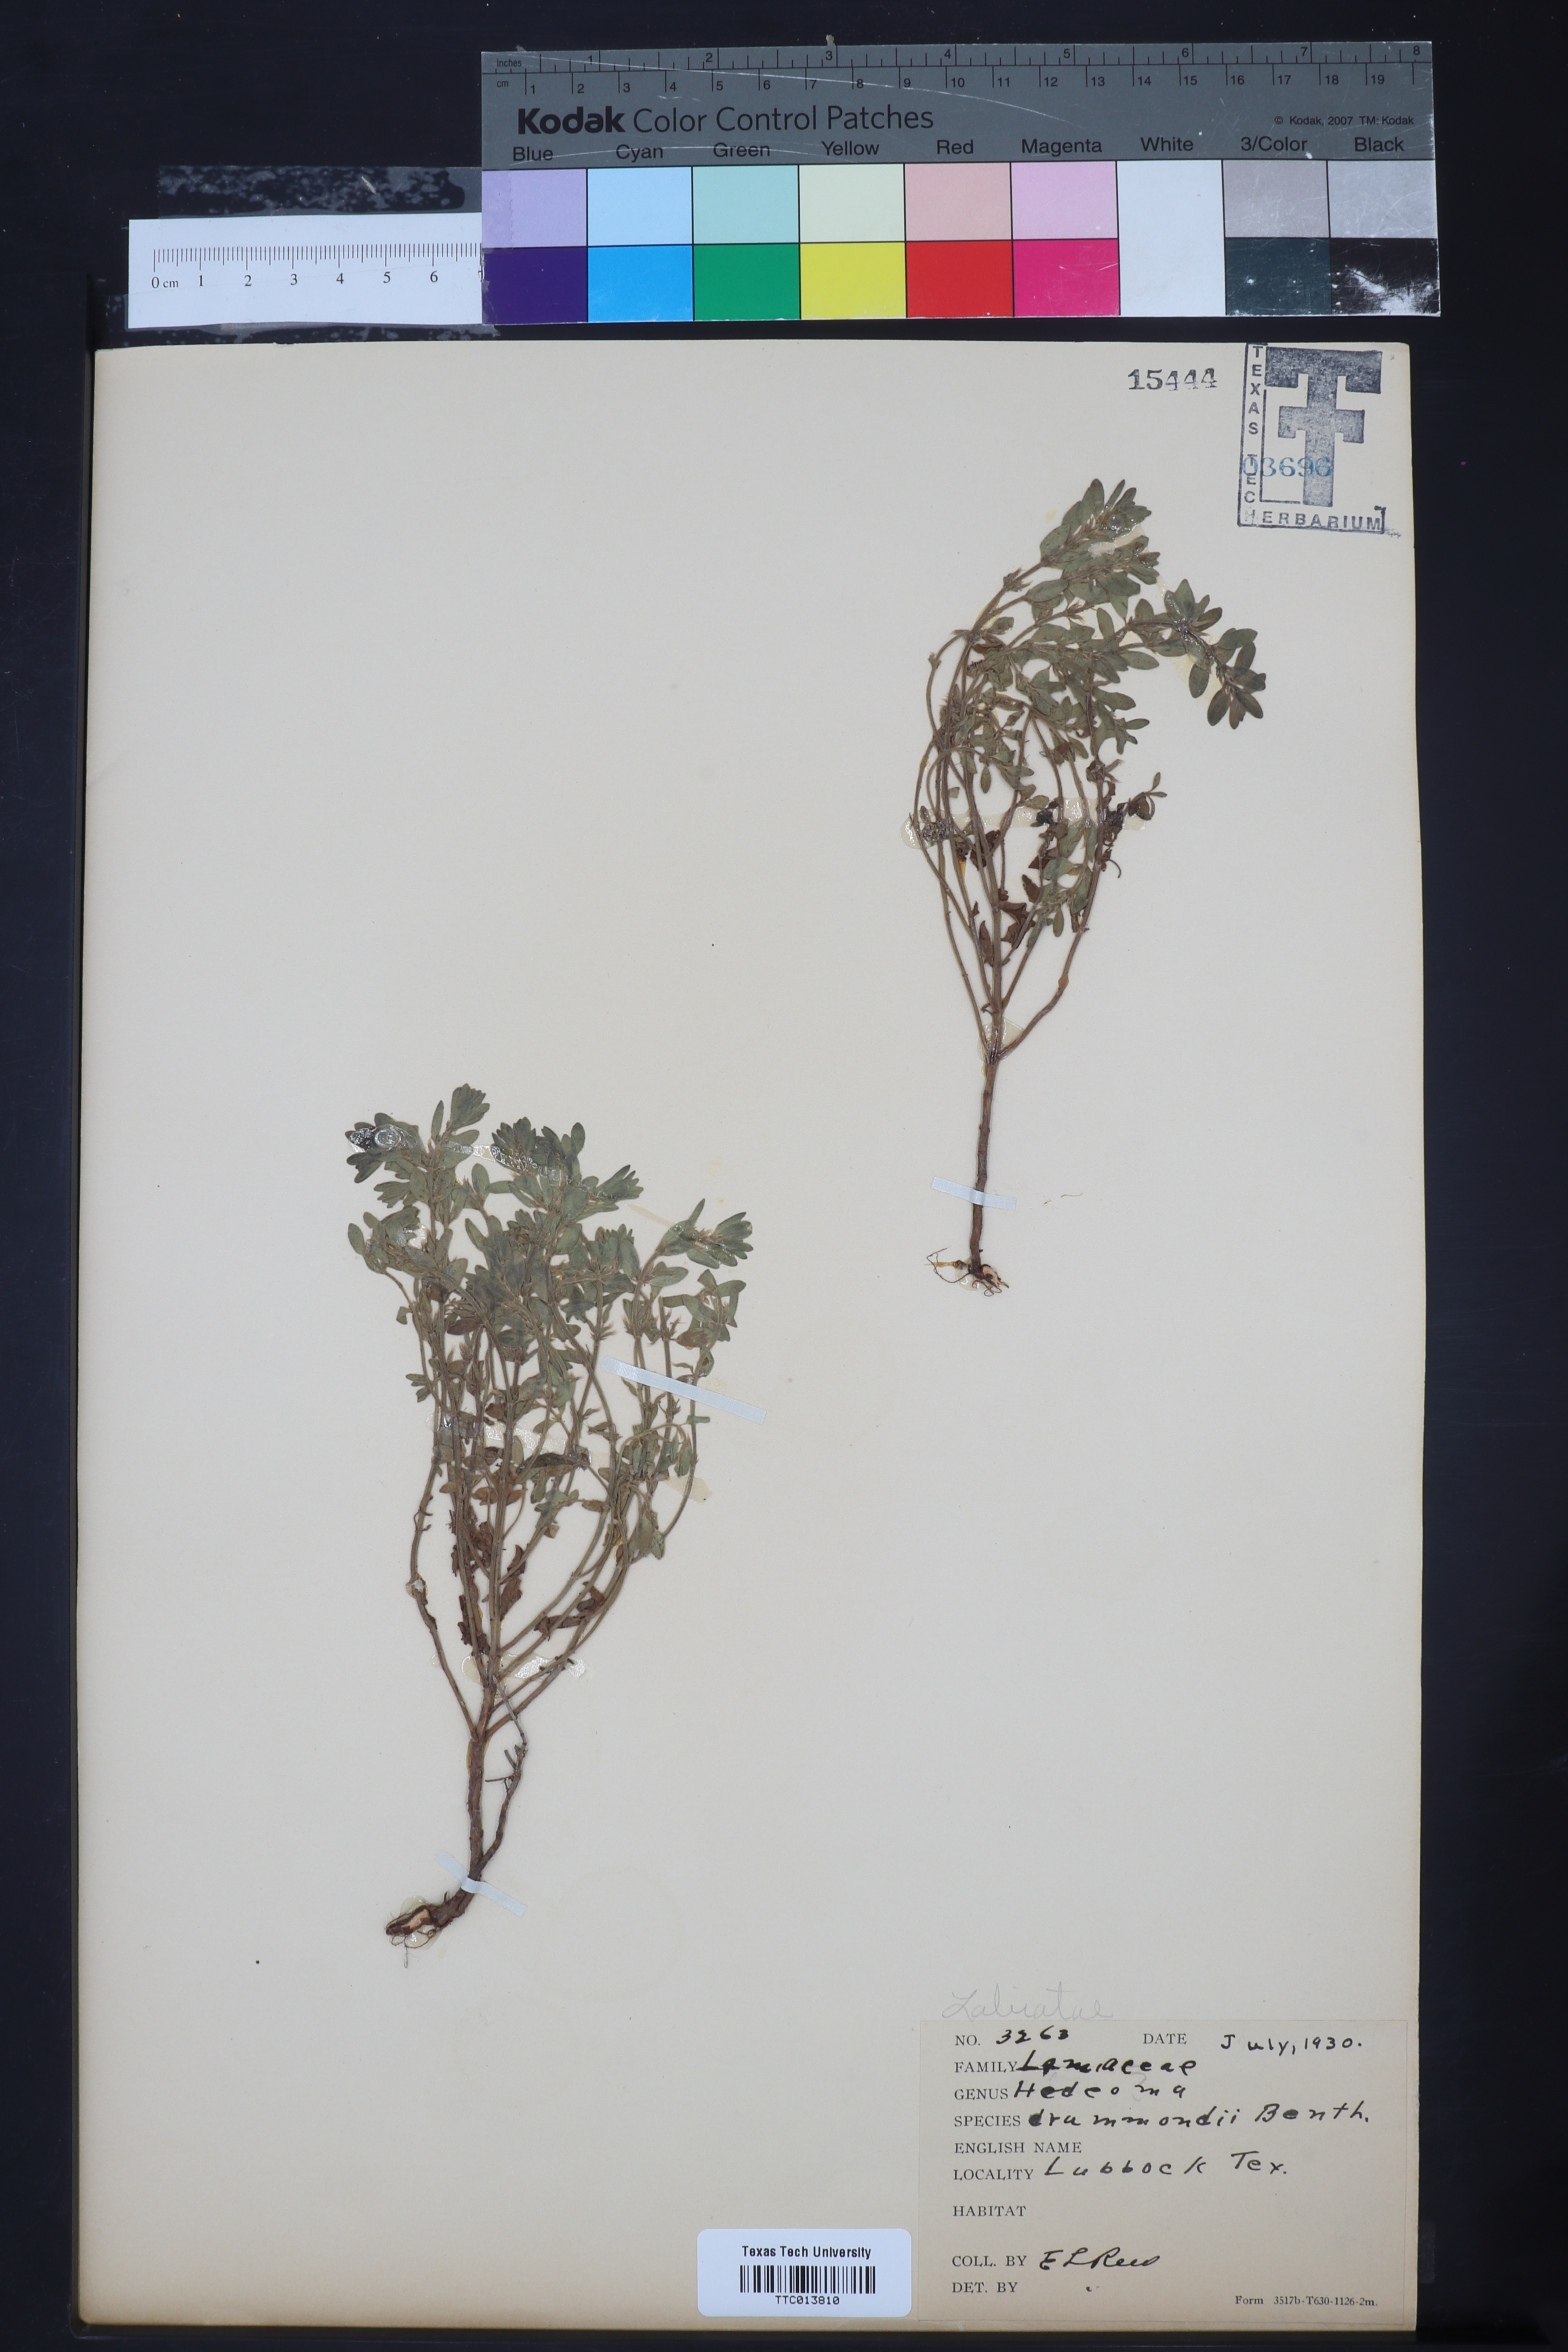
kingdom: Plantae
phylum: Tracheophyta
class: Magnoliopsida
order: Lamiales
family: Lamiaceae
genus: Hedeoma
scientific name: Hedeoma drummondii
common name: New mexico pennyroyal
